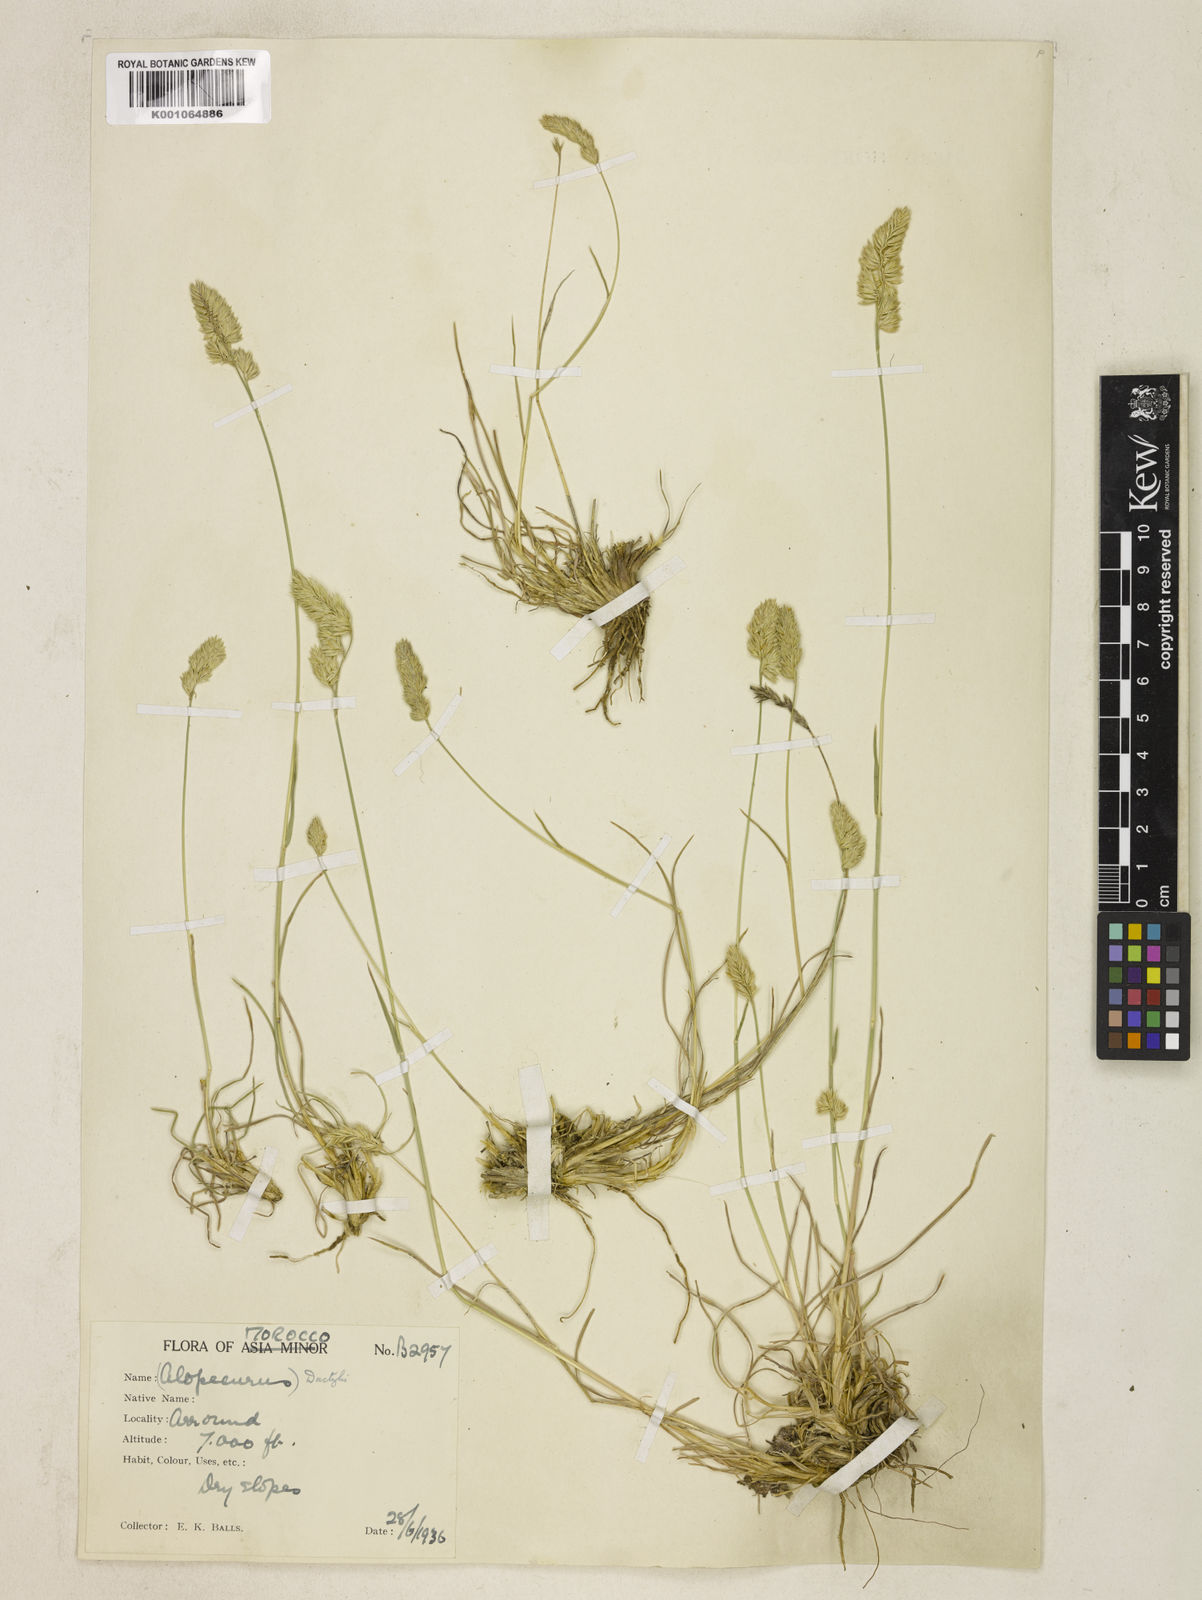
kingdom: Plantae
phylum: Tracheophyta
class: Liliopsida
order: Poales
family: Poaceae
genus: Dactylis
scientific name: Dactylis glomerata
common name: Orchardgrass
